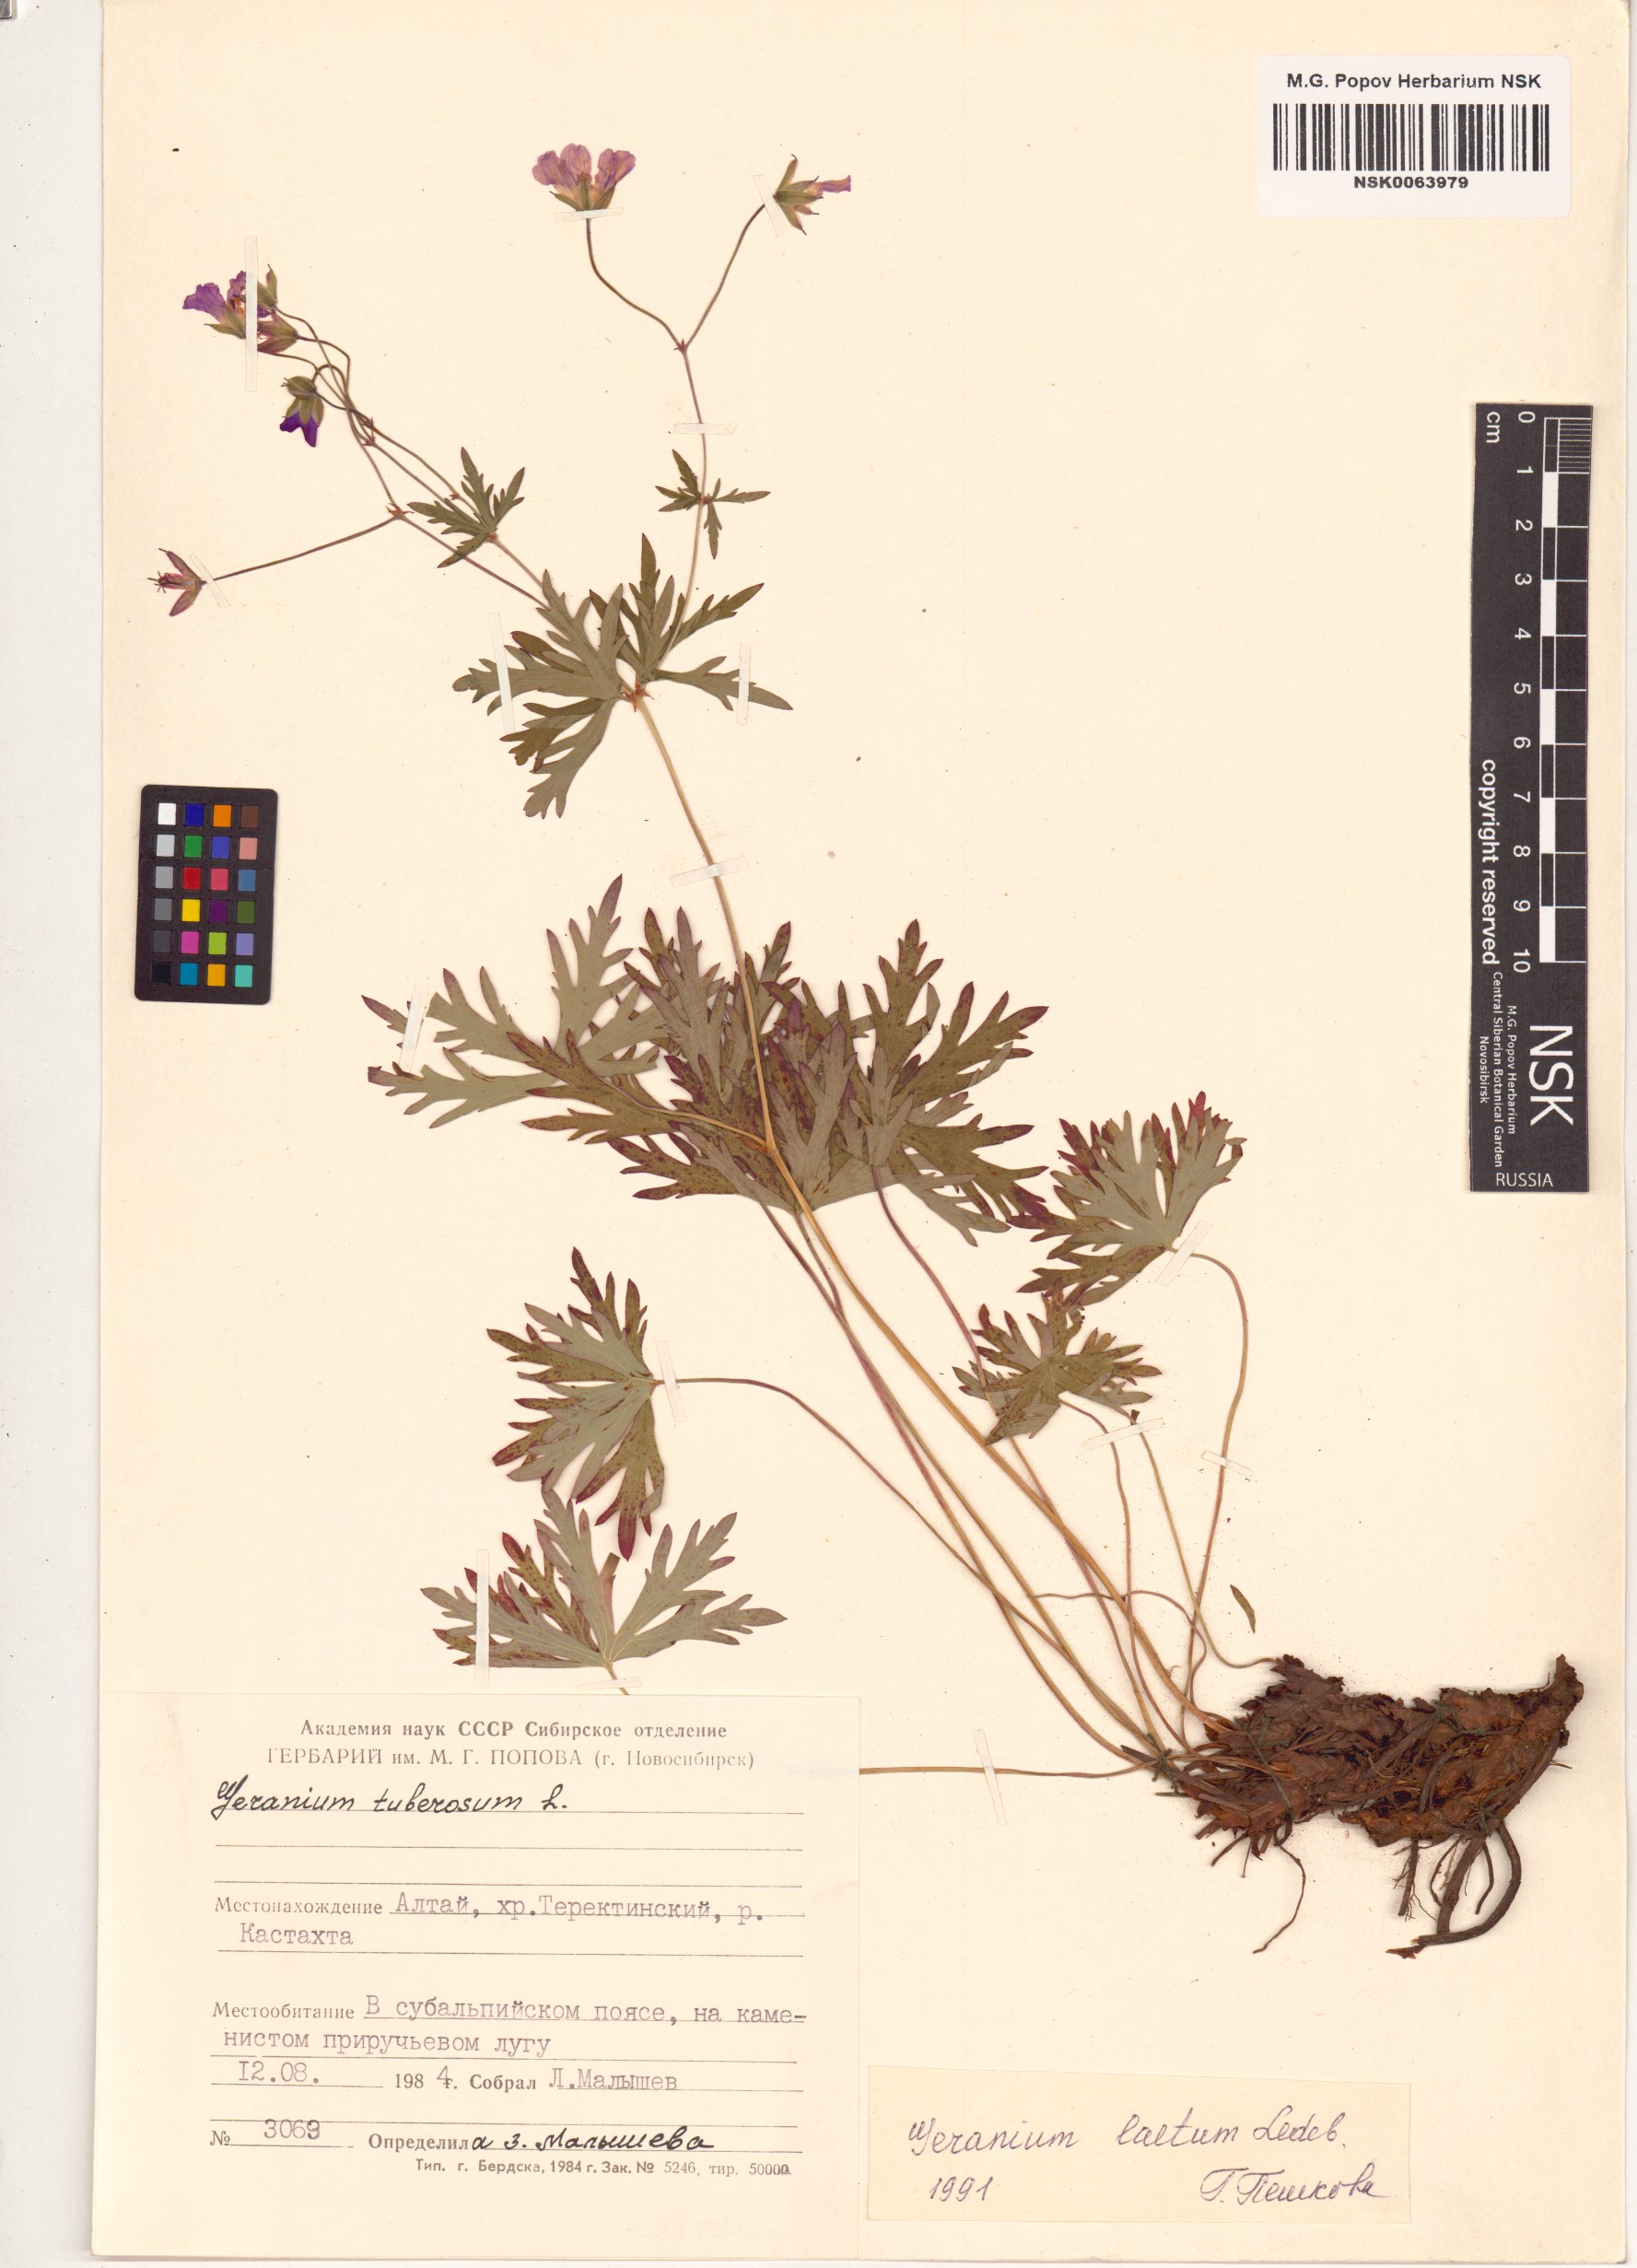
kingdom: Plantae
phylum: Tracheophyta
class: Magnoliopsida
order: Geraniales
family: Geraniaceae
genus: Geranium
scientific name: Geranium pseudosibiricum
